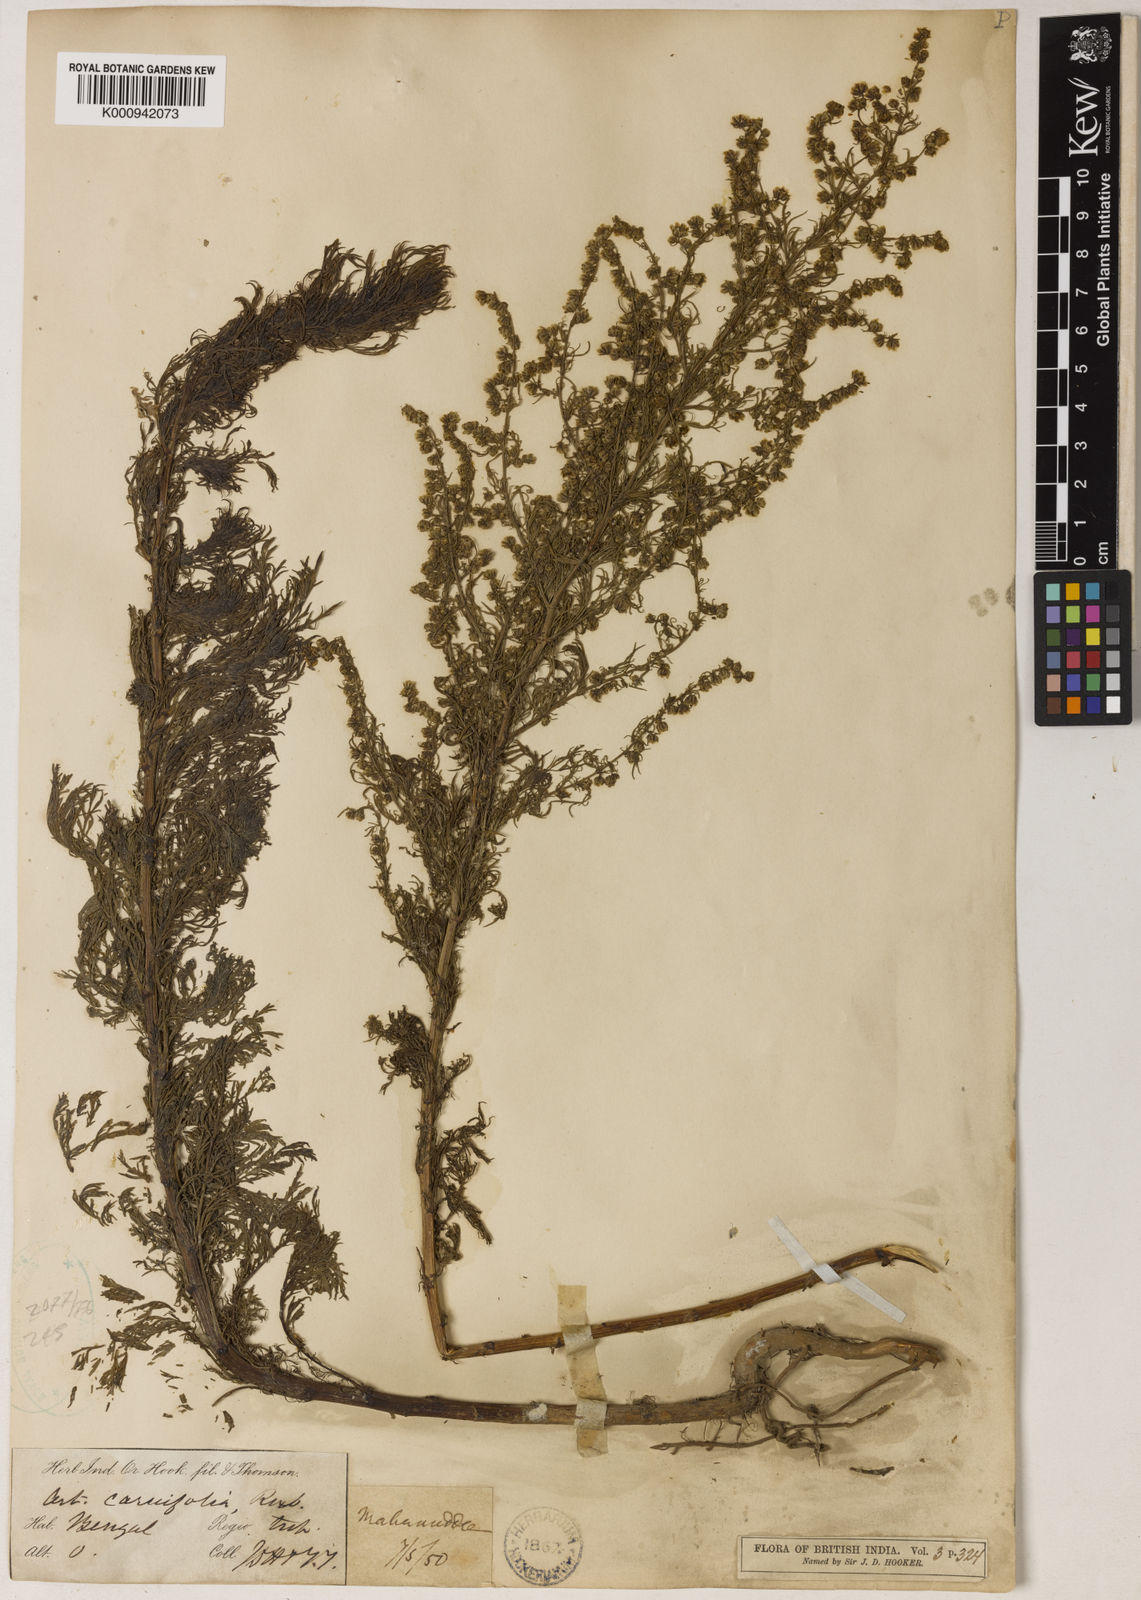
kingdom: Plantae
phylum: Tracheophyta
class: Magnoliopsida
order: Asterales
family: Asteraceae
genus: Artemisia
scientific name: Artemisia
